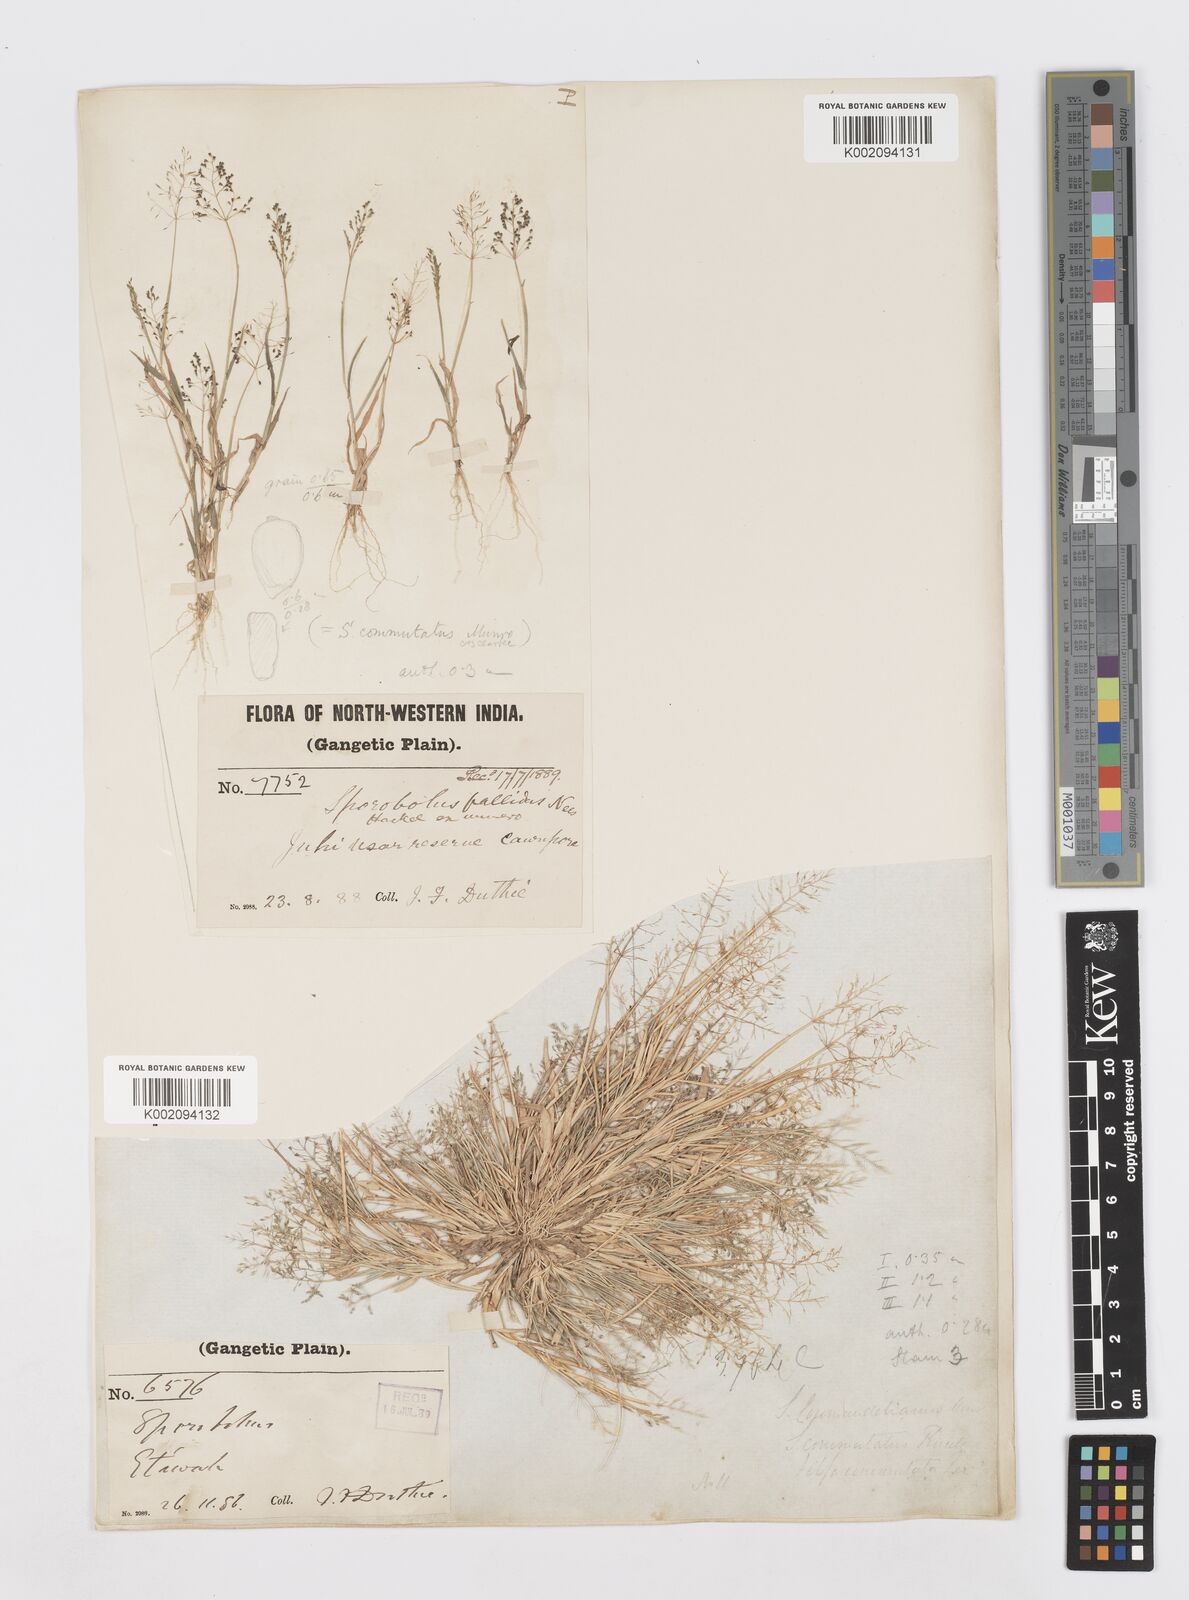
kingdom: Plantae
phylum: Tracheophyta
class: Liliopsida
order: Poales
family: Poaceae
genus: Sporobolus
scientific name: Sporobolus coromandelianus
